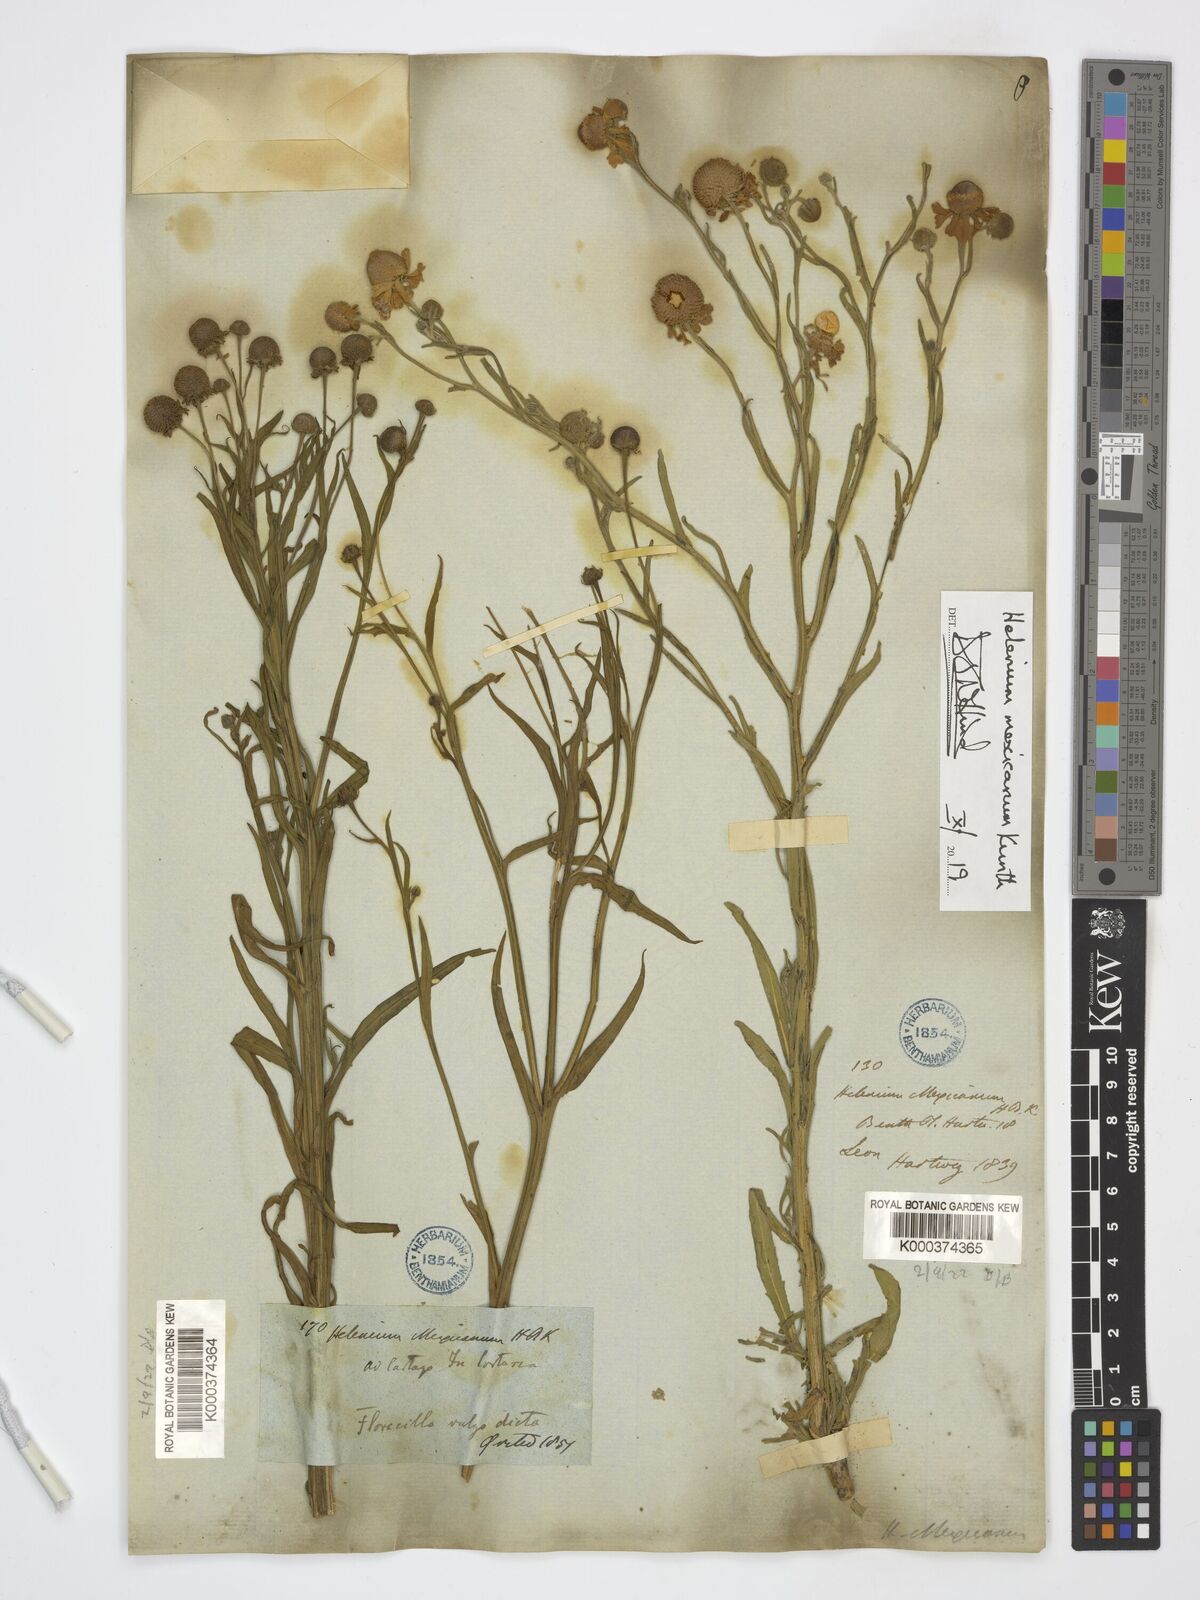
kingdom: Plantae
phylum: Tracheophyta
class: Magnoliopsida
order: Asterales
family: Asteraceae
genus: Helenium
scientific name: Helenium mexicanum
